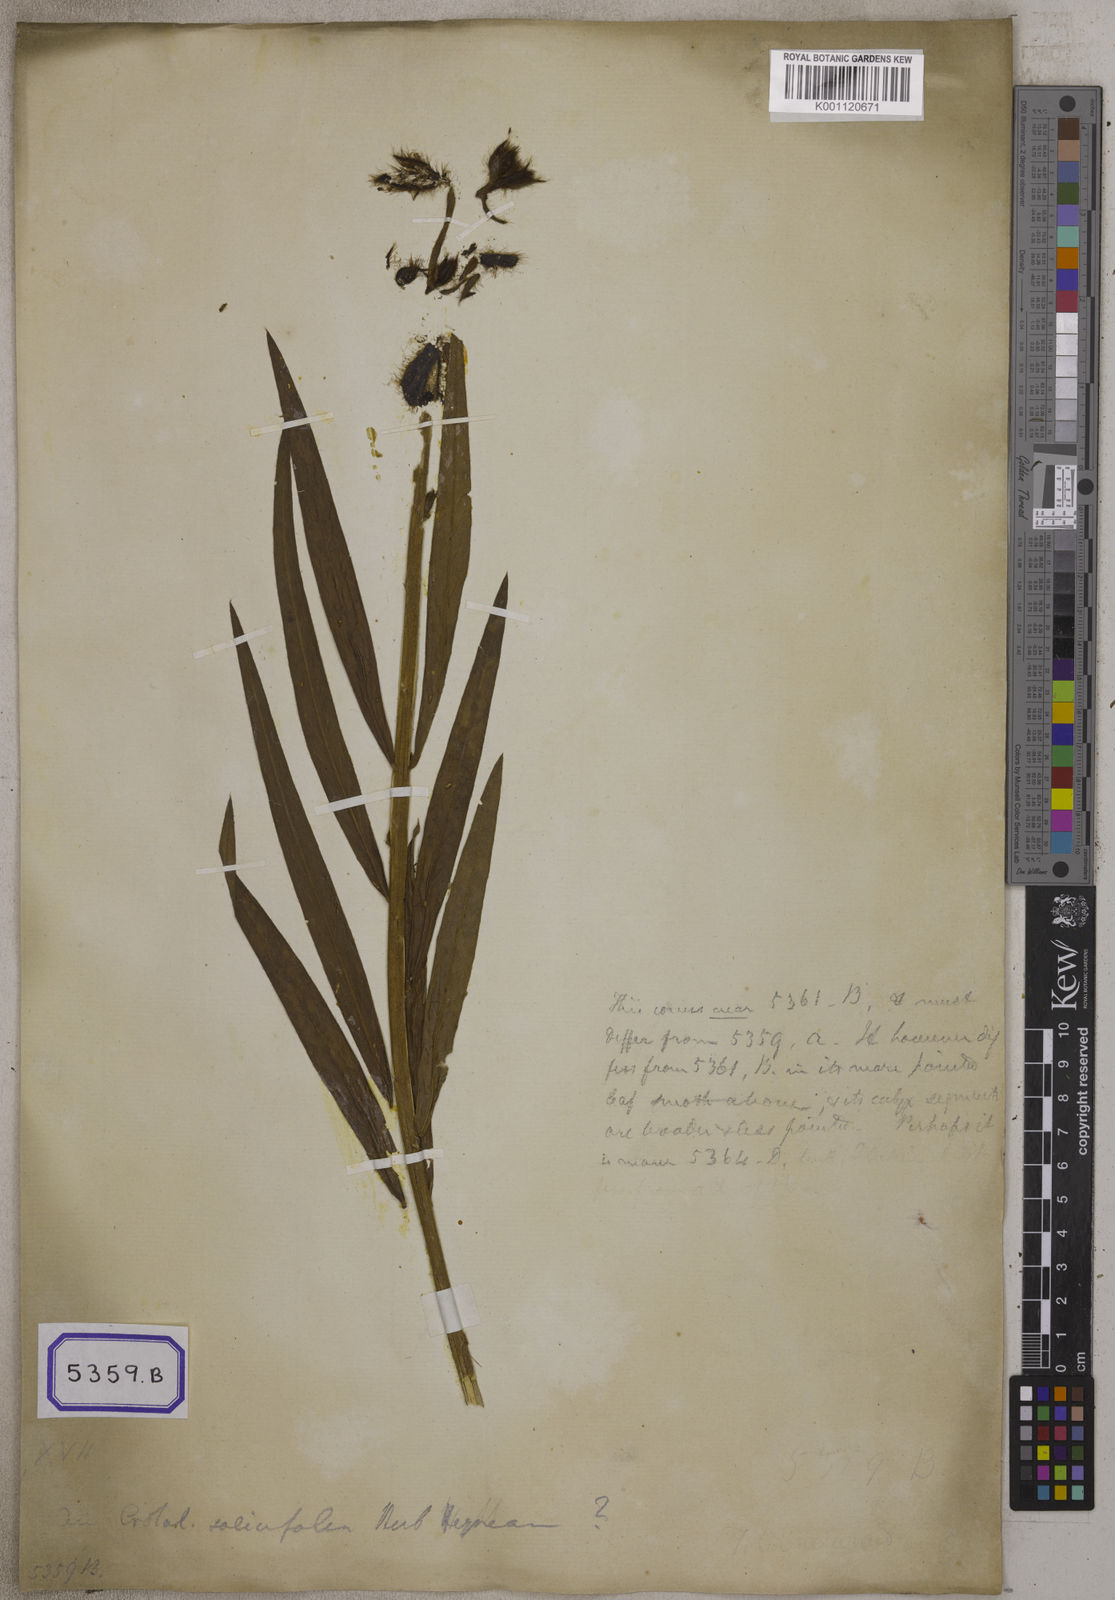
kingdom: Plantae
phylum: Tracheophyta
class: Magnoliopsida
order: Fabales
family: Fabaceae
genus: Crotalaria
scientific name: Crotalaria
